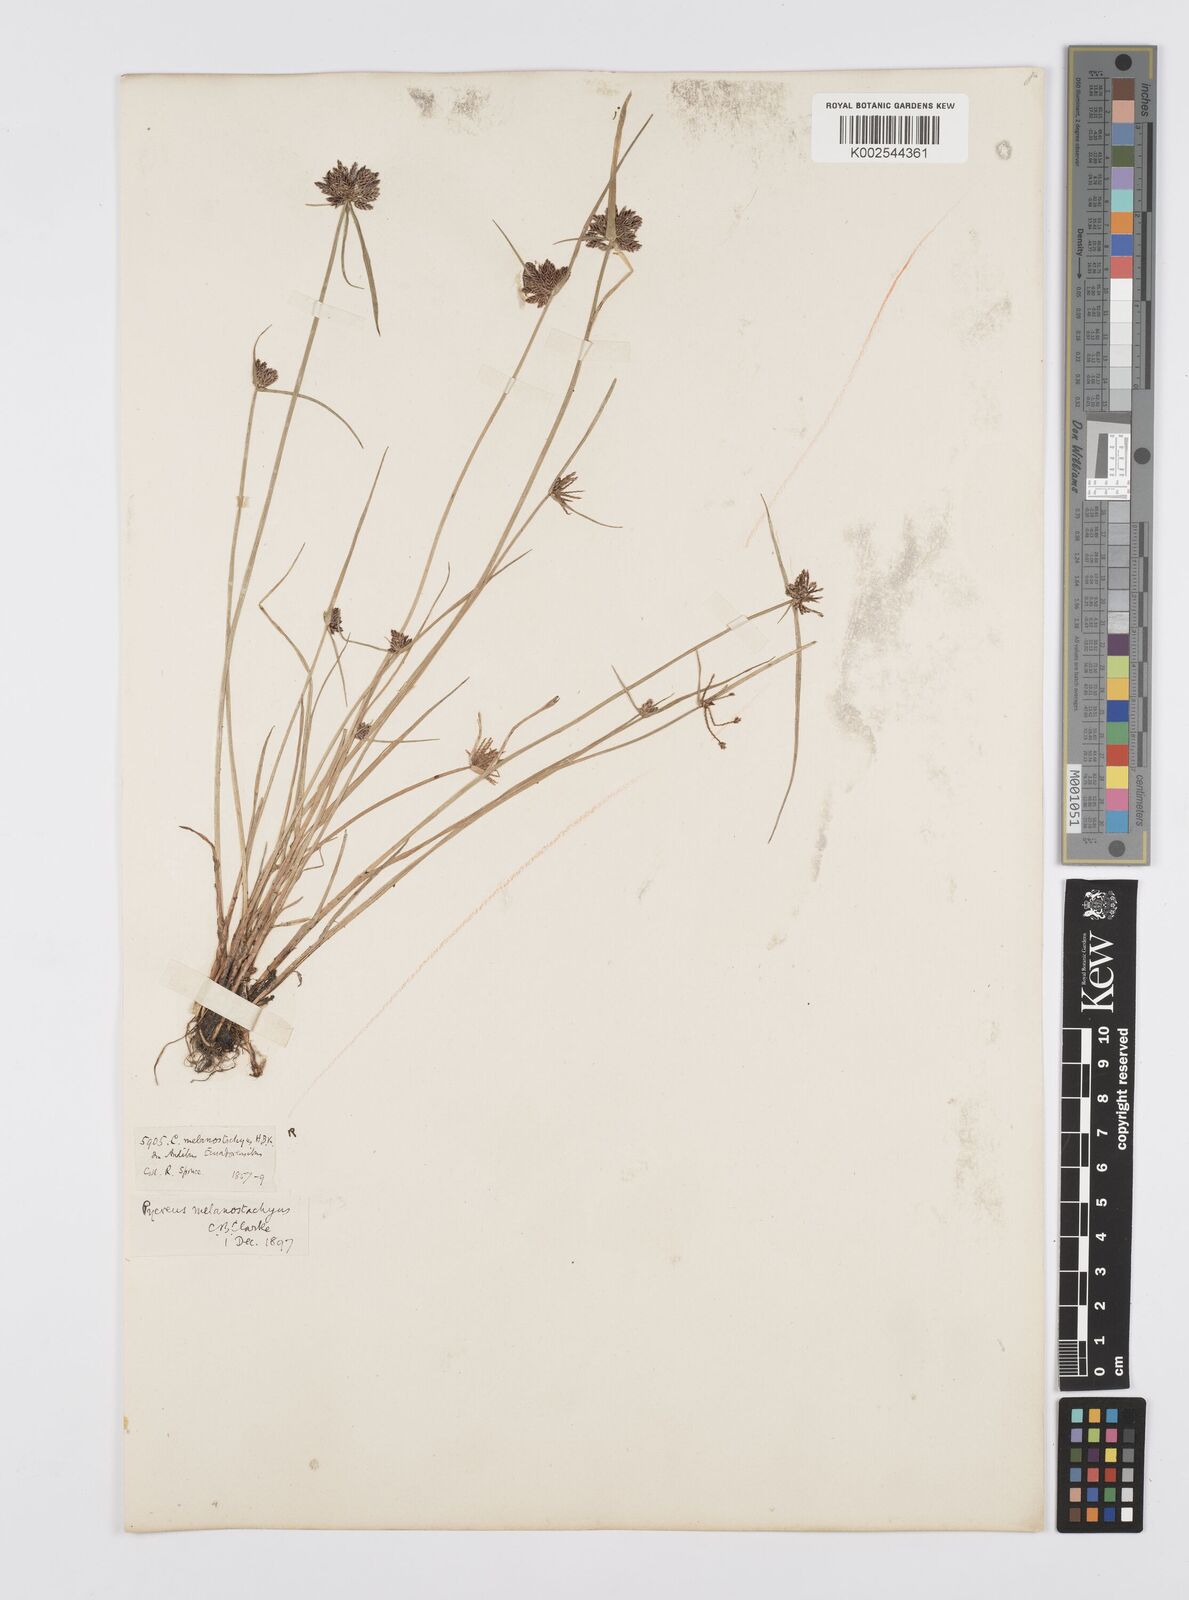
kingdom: Plantae
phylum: Tracheophyta
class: Liliopsida
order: Poales
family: Cyperaceae
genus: Cyperus
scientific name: Cyperus melanostachyus
